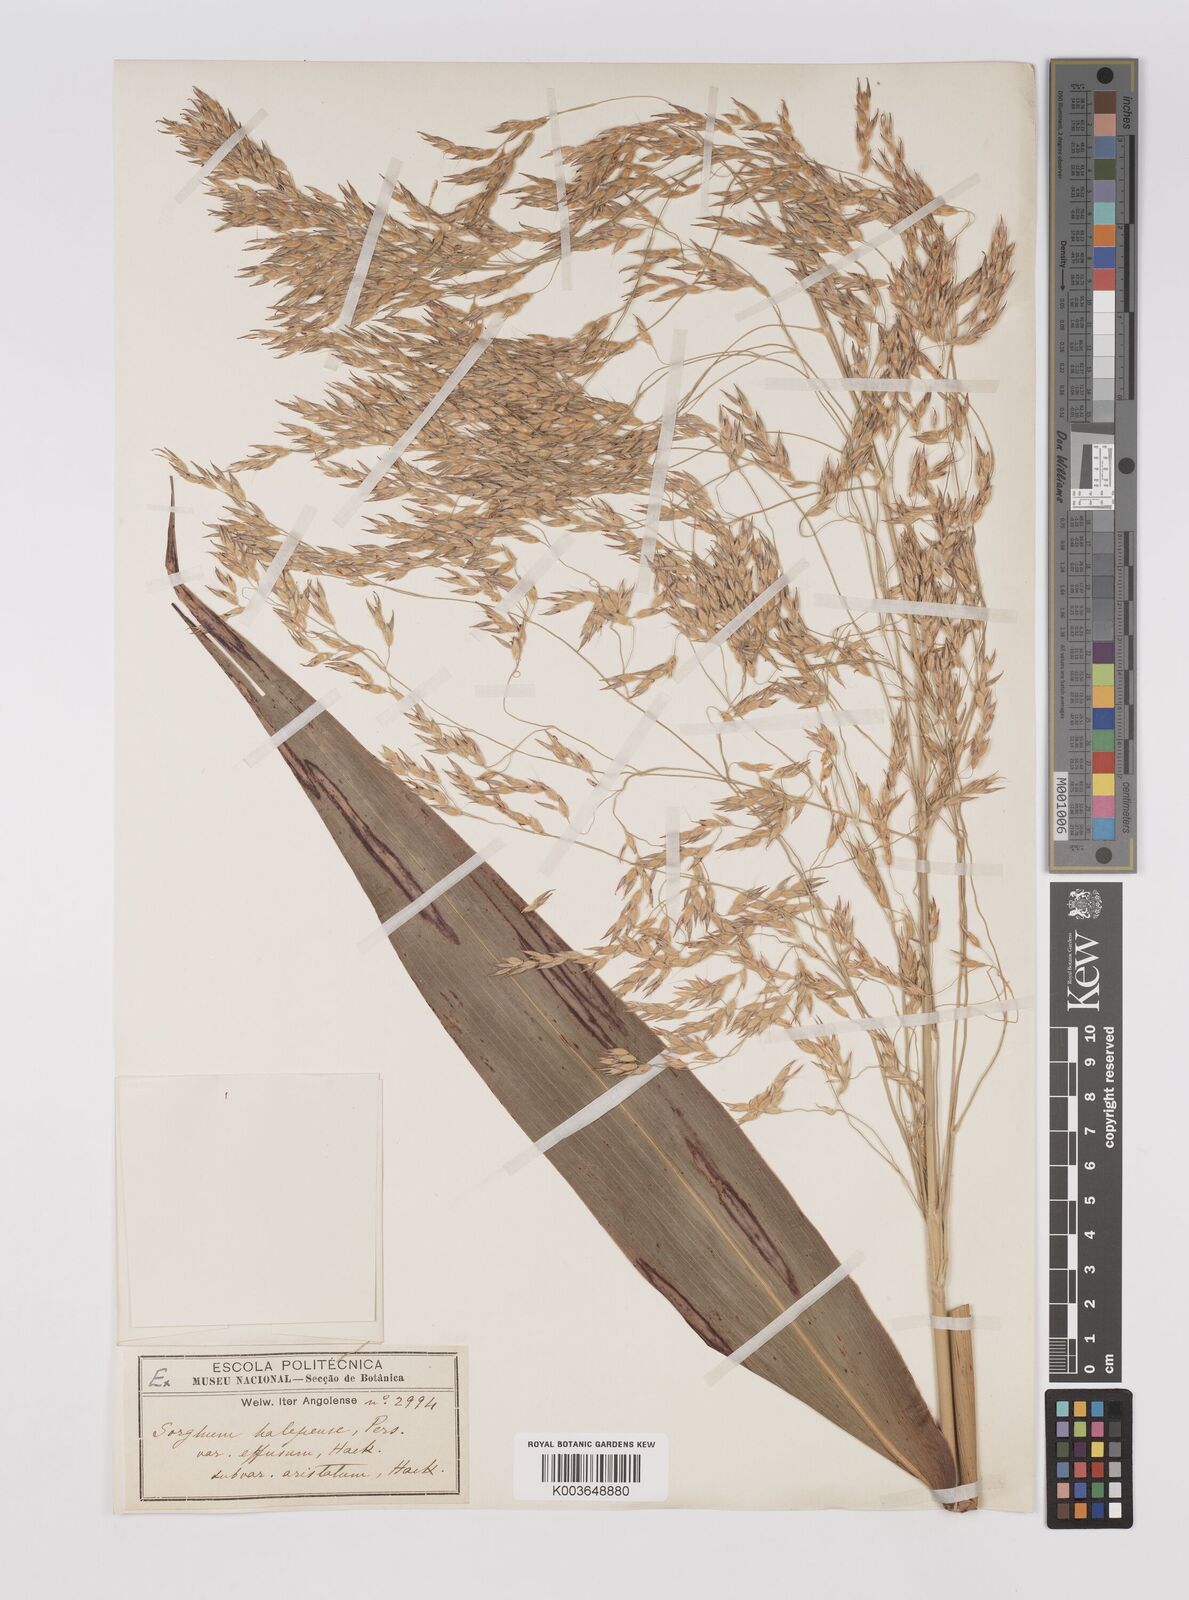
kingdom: Plantae
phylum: Tracheophyta
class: Liliopsida
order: Poales
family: Poaceae
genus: Sorghum
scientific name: Sorghum arundinaceum
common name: Sorghum
